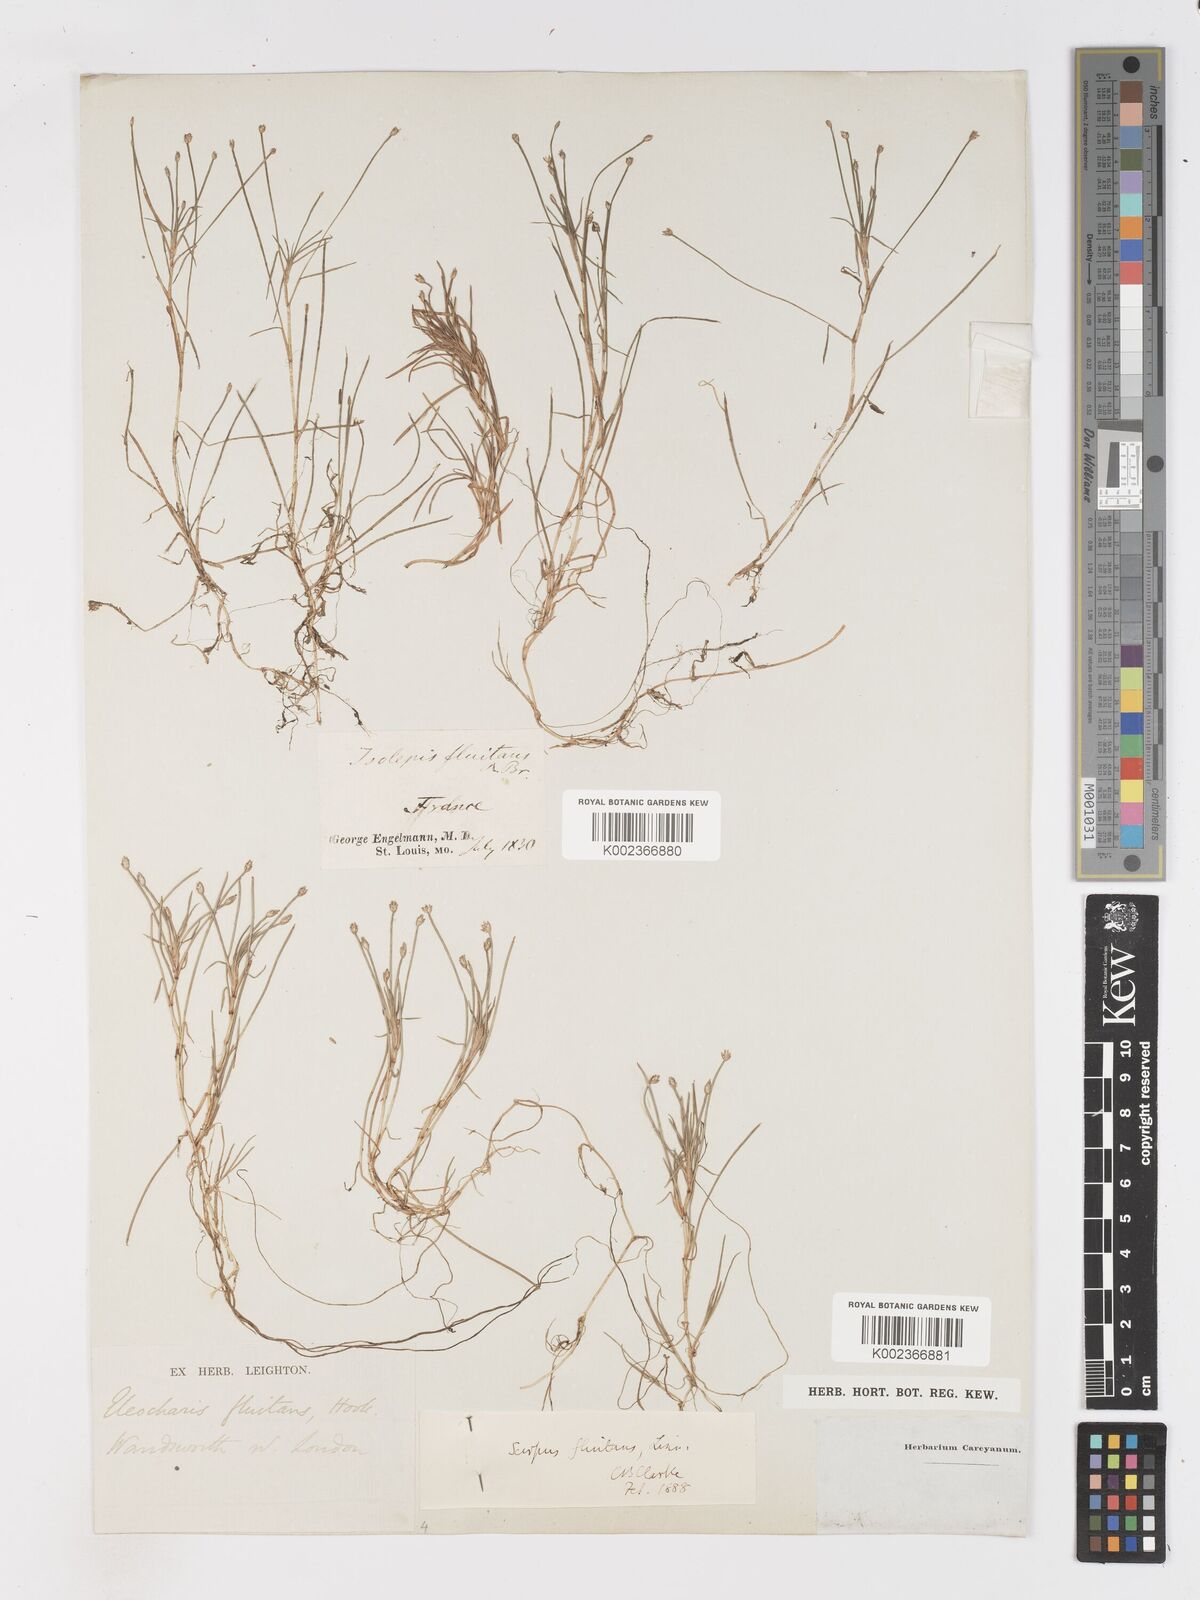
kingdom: Plantae
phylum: Tracheophyta
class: Liliopsida
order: Poales
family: Cyperaceae
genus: Isolepis
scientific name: Isolepis fluitans
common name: Floating club-rush
